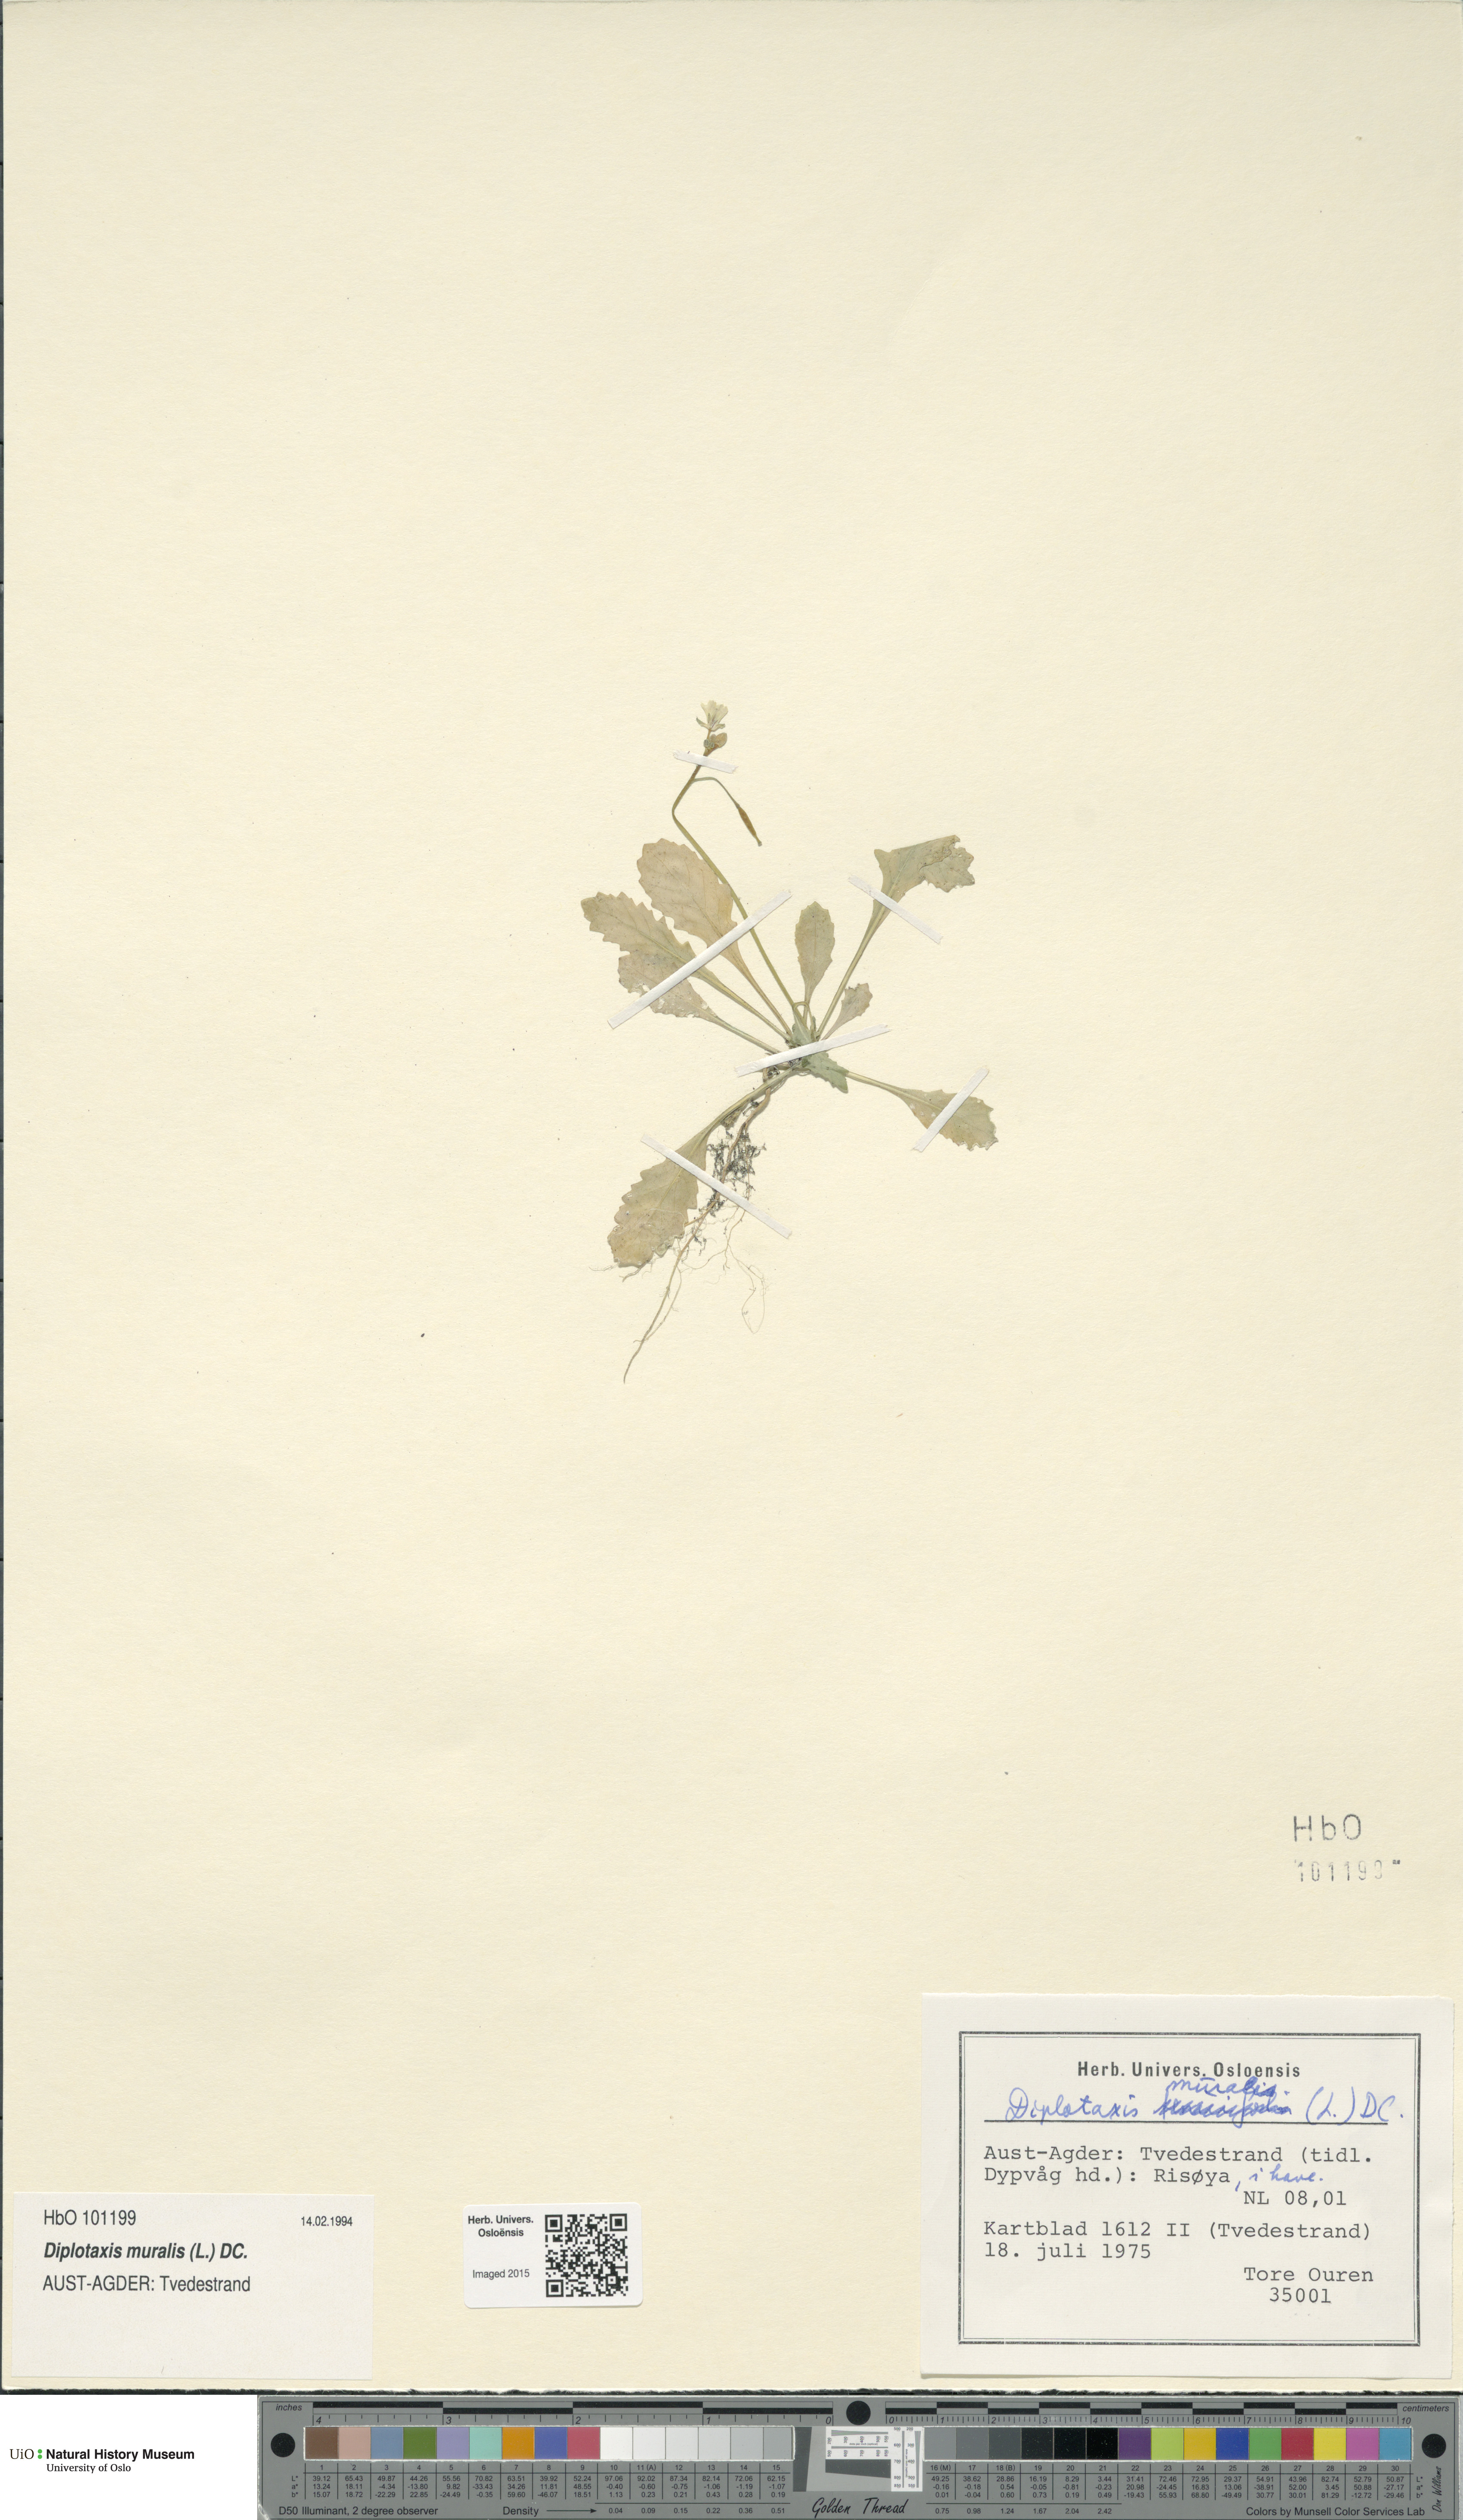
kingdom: Plantae
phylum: Tracheophyta
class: Magnoliopsida
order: Brassicales
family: Brassicaceae
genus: Diplotaxis
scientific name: Diplotaxis muralis
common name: Annual wall-rocket
